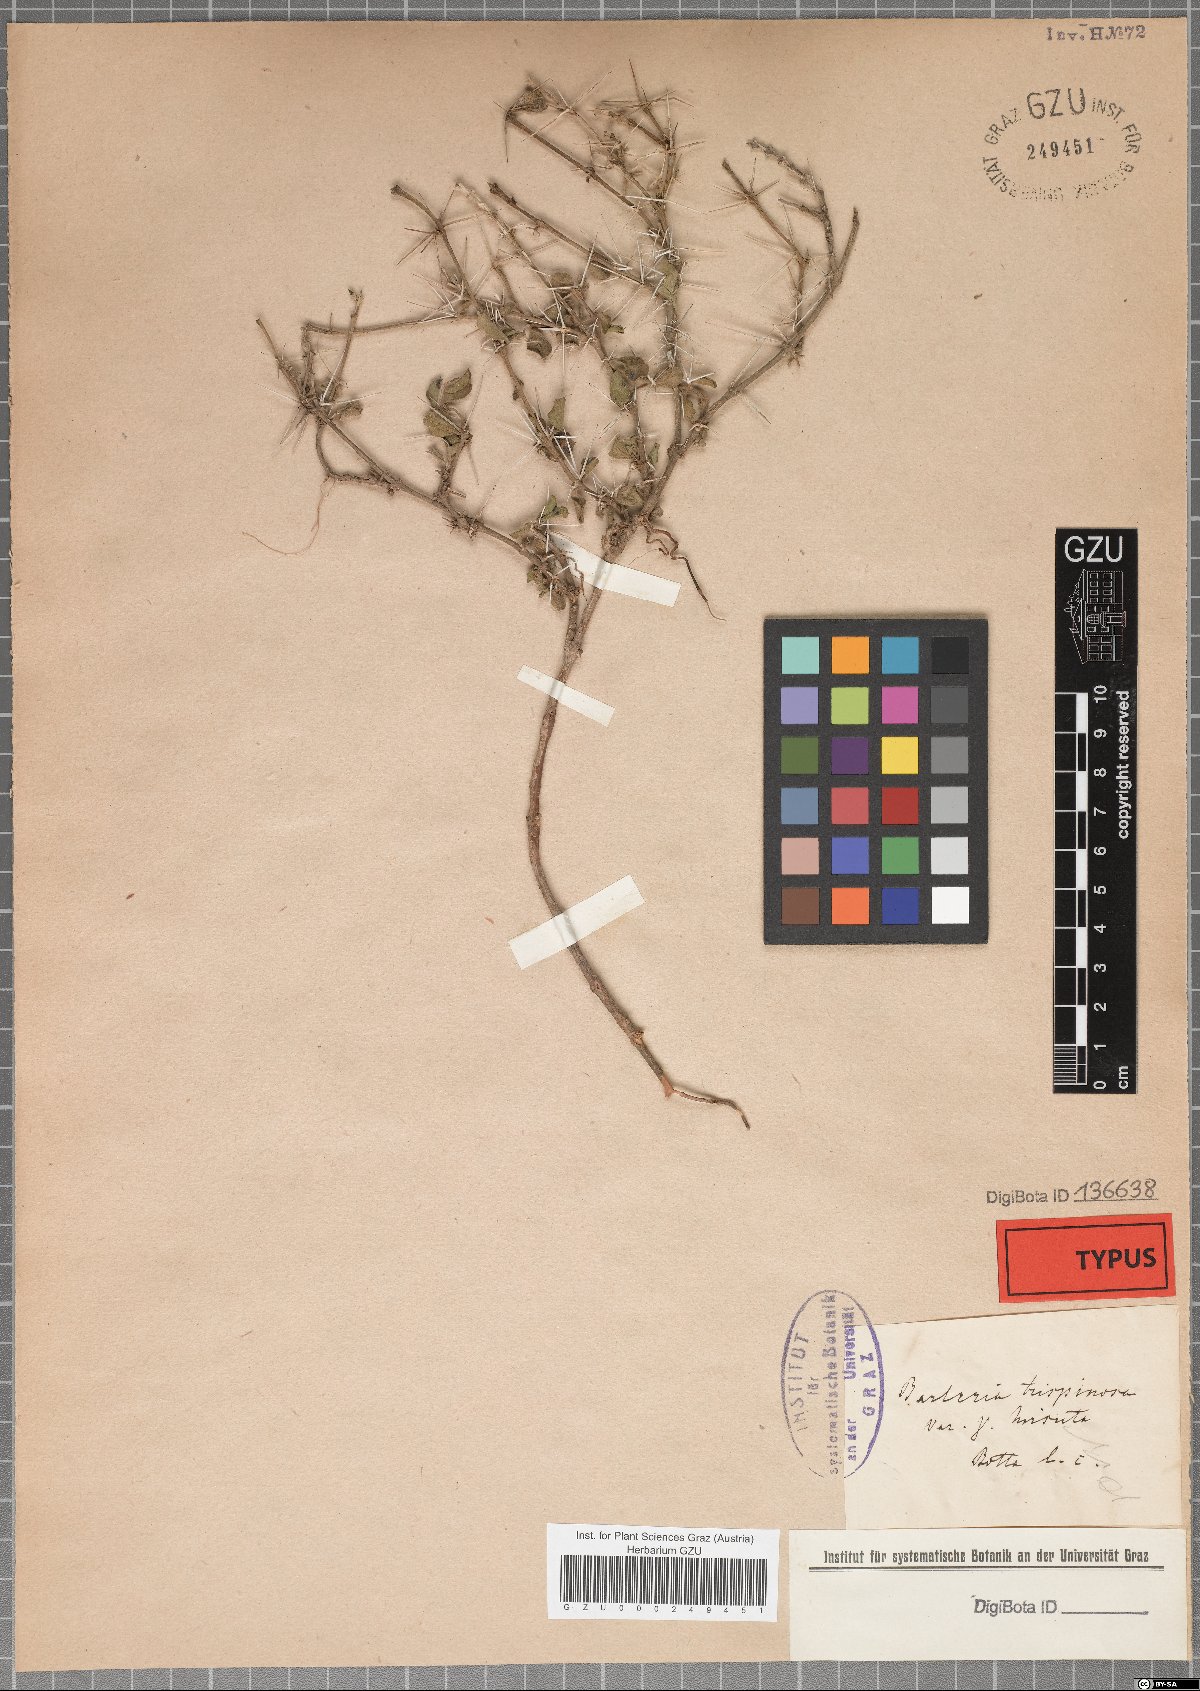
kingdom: Plantae
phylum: Tracheophyta
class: Magnoliopsida
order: Lamiales
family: Acanthaceae
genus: Barleria
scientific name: Barleria trispinosa
